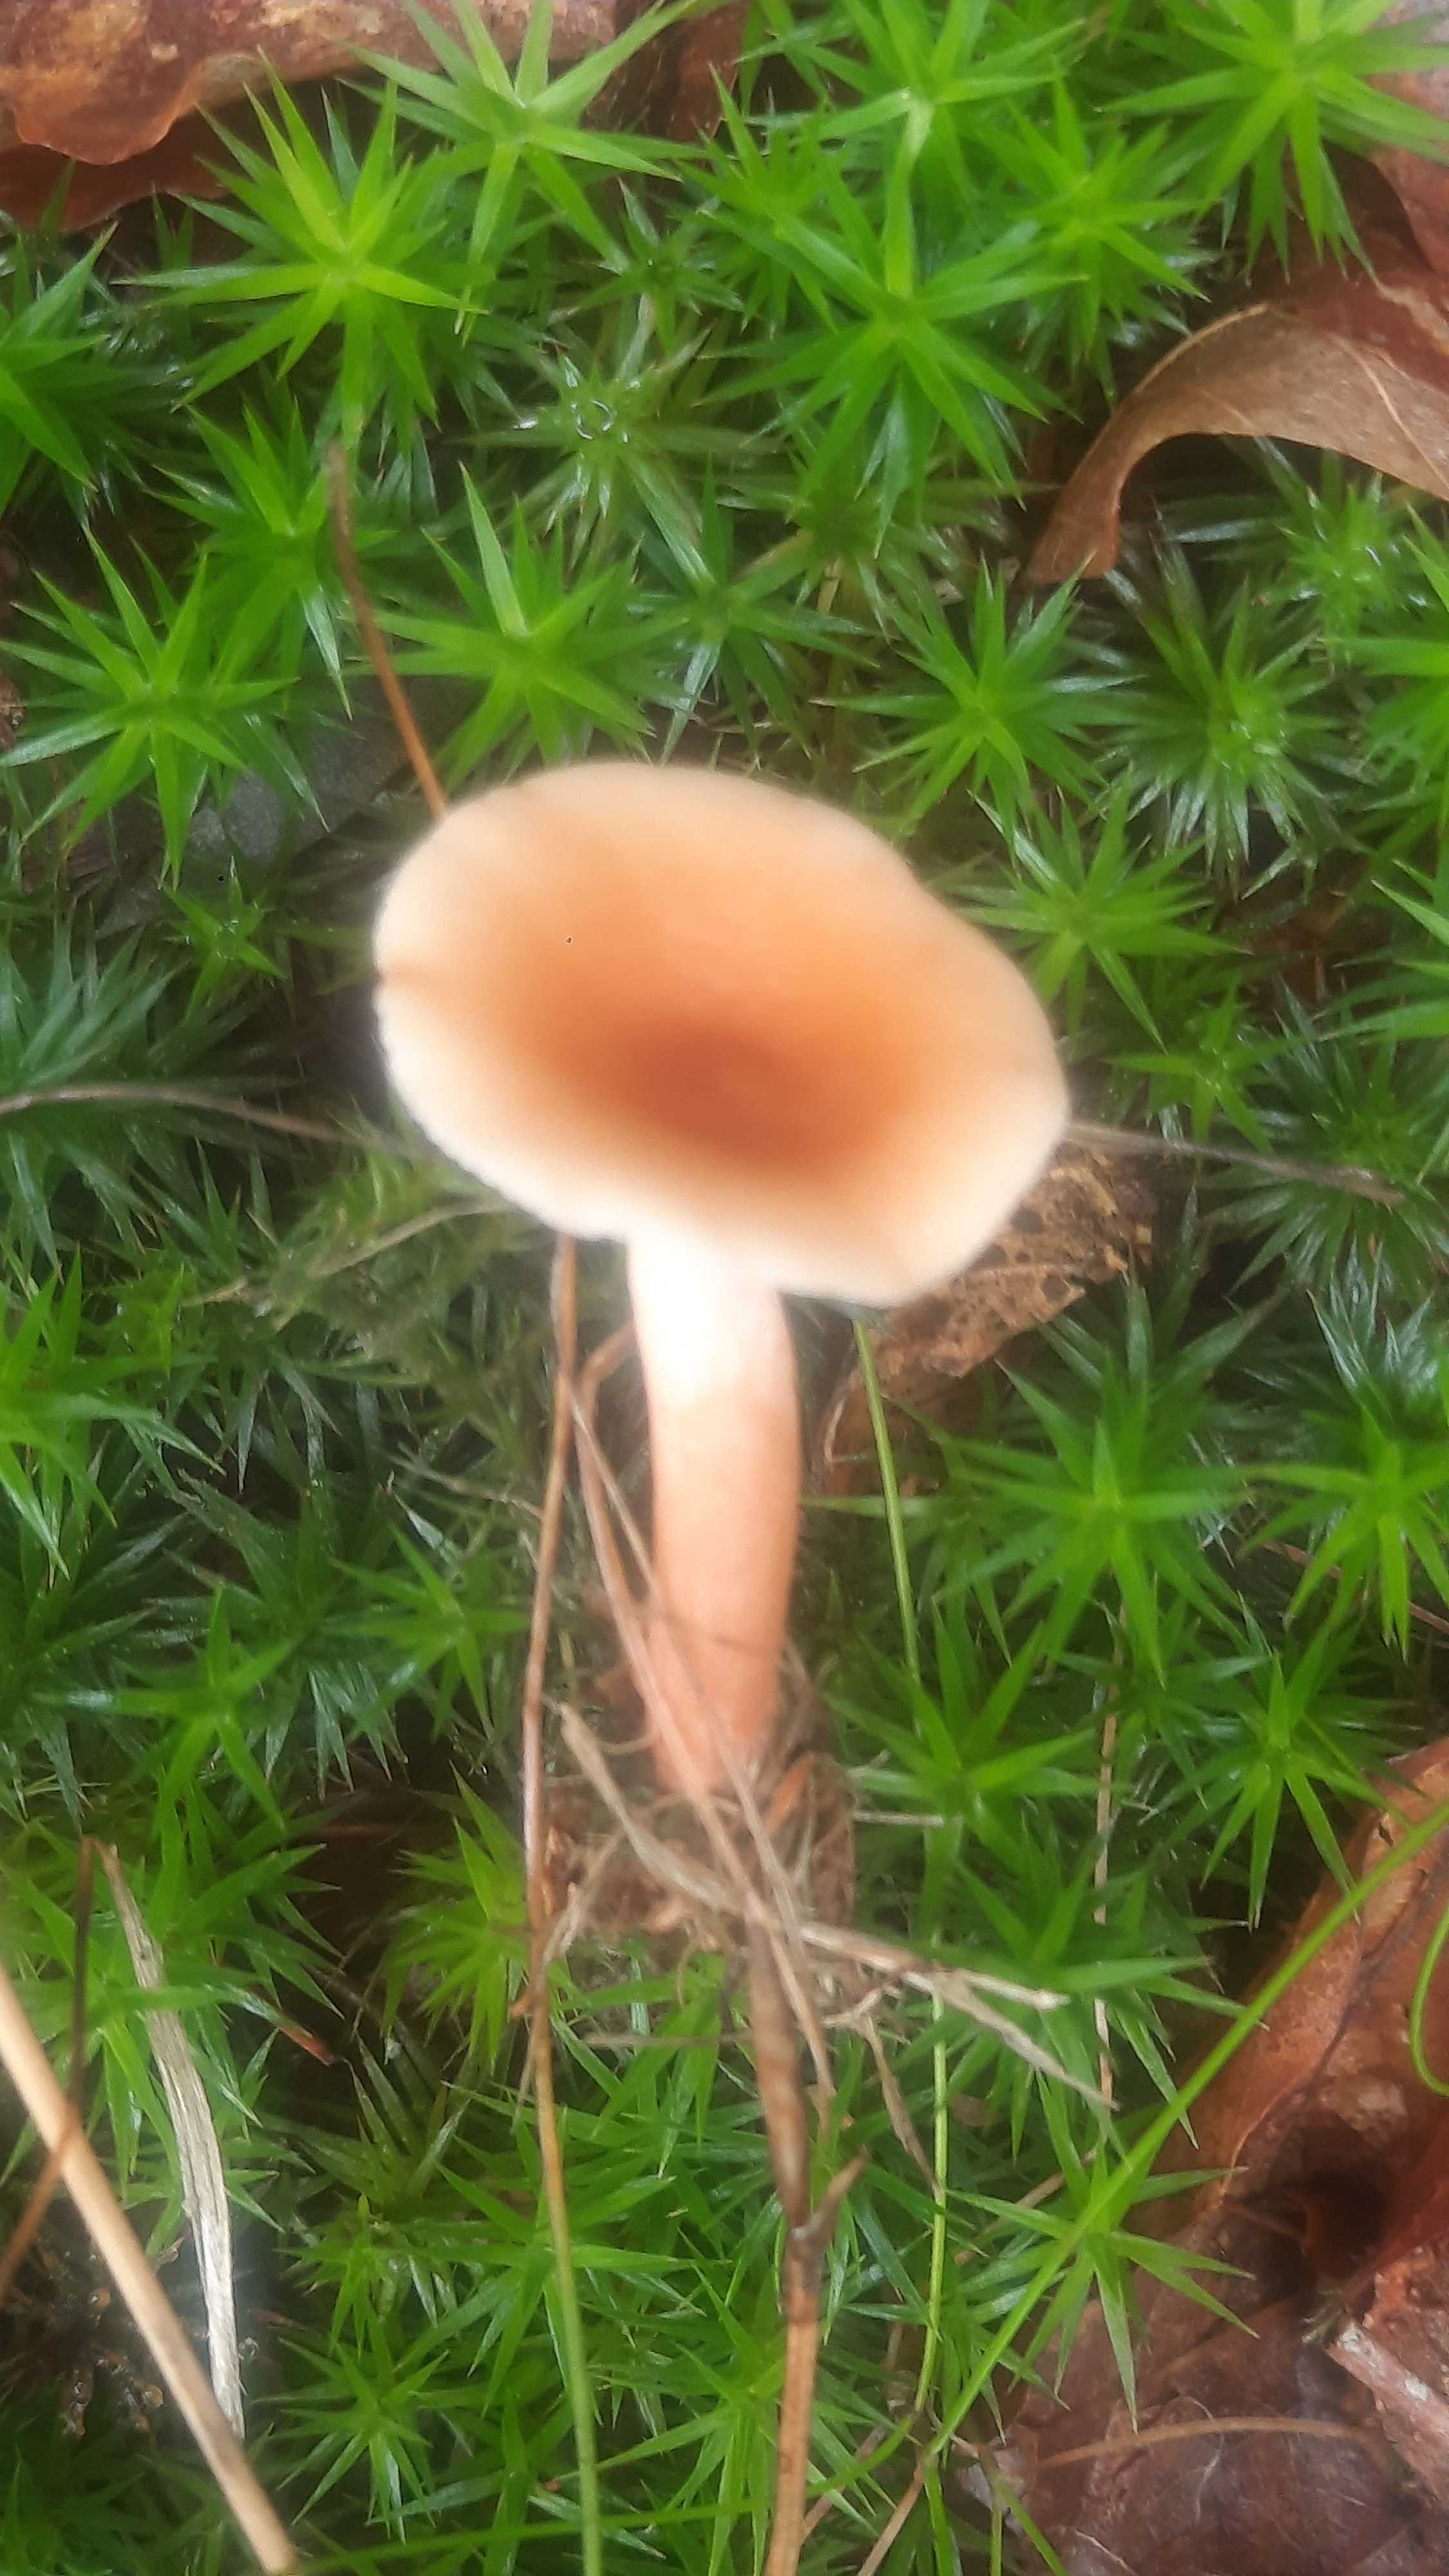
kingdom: Fungi
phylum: Basidiomycota
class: Agaricomycetes
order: Russulales
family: Russulaceae
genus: Lactarius
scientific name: Lactarius tabidus
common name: rynket mælkehat
